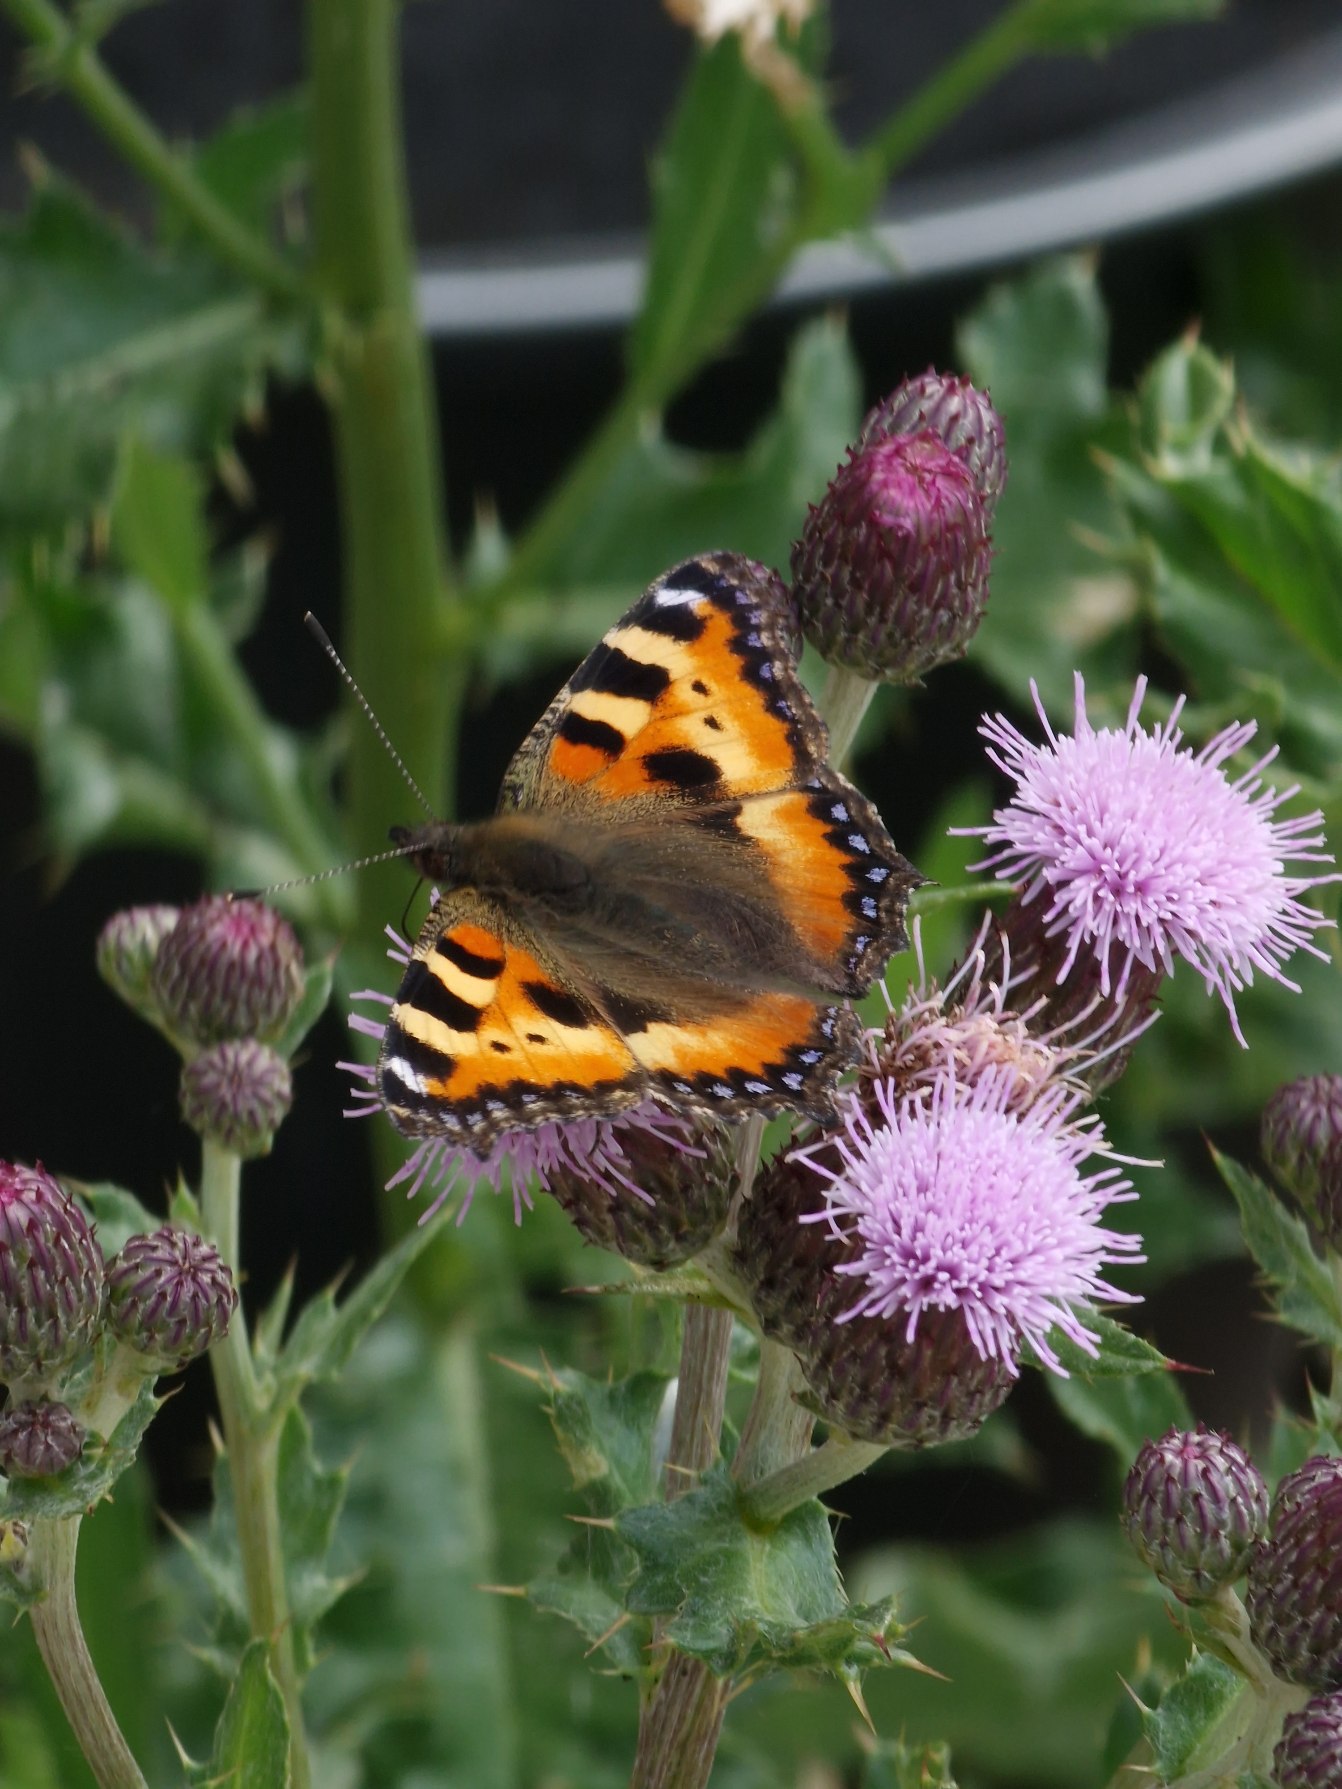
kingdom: Animalia
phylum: Arthropoda
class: Insecta
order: Lepidoptera
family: Nymphalidae
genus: Aglais
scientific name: Aglais urticae
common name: Nældens takvinge
